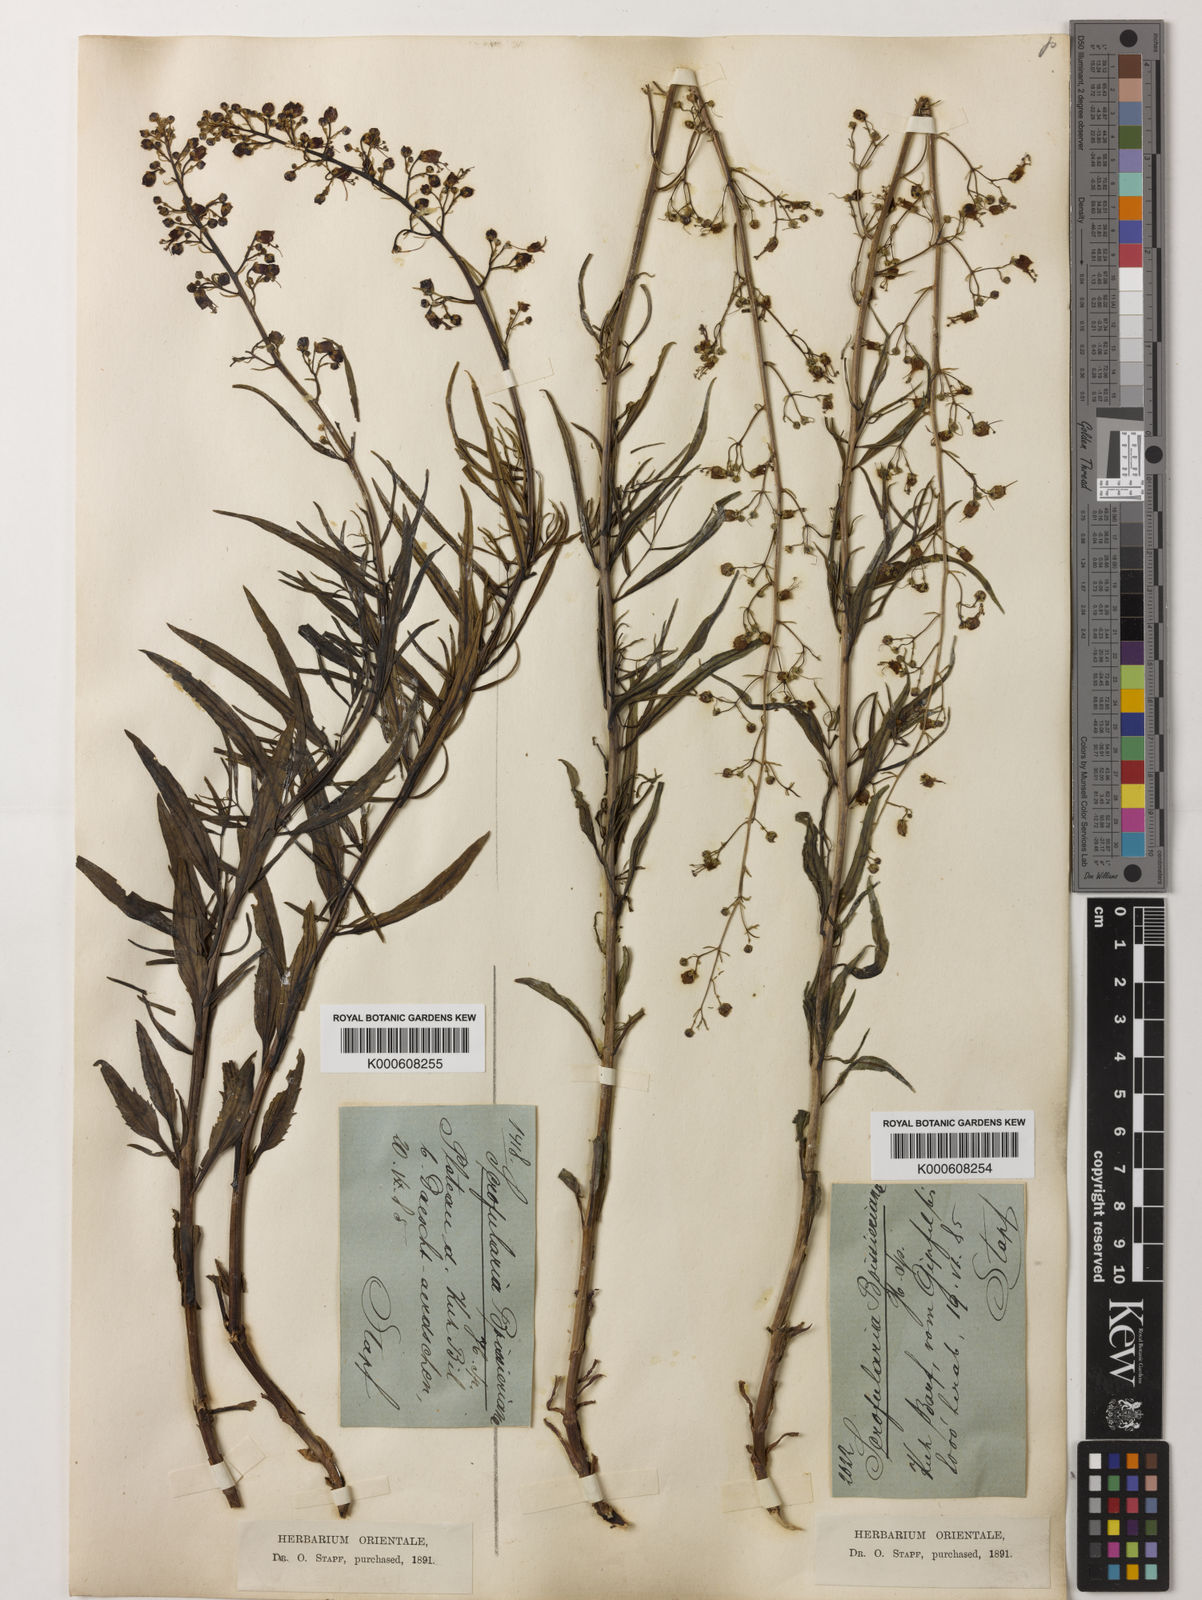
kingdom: Plantae
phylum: Tracheophyta
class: Magnoliopsida
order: Lamiales
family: Scrophulariaceae
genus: Scrophularia
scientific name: Scrophularia nervosa
